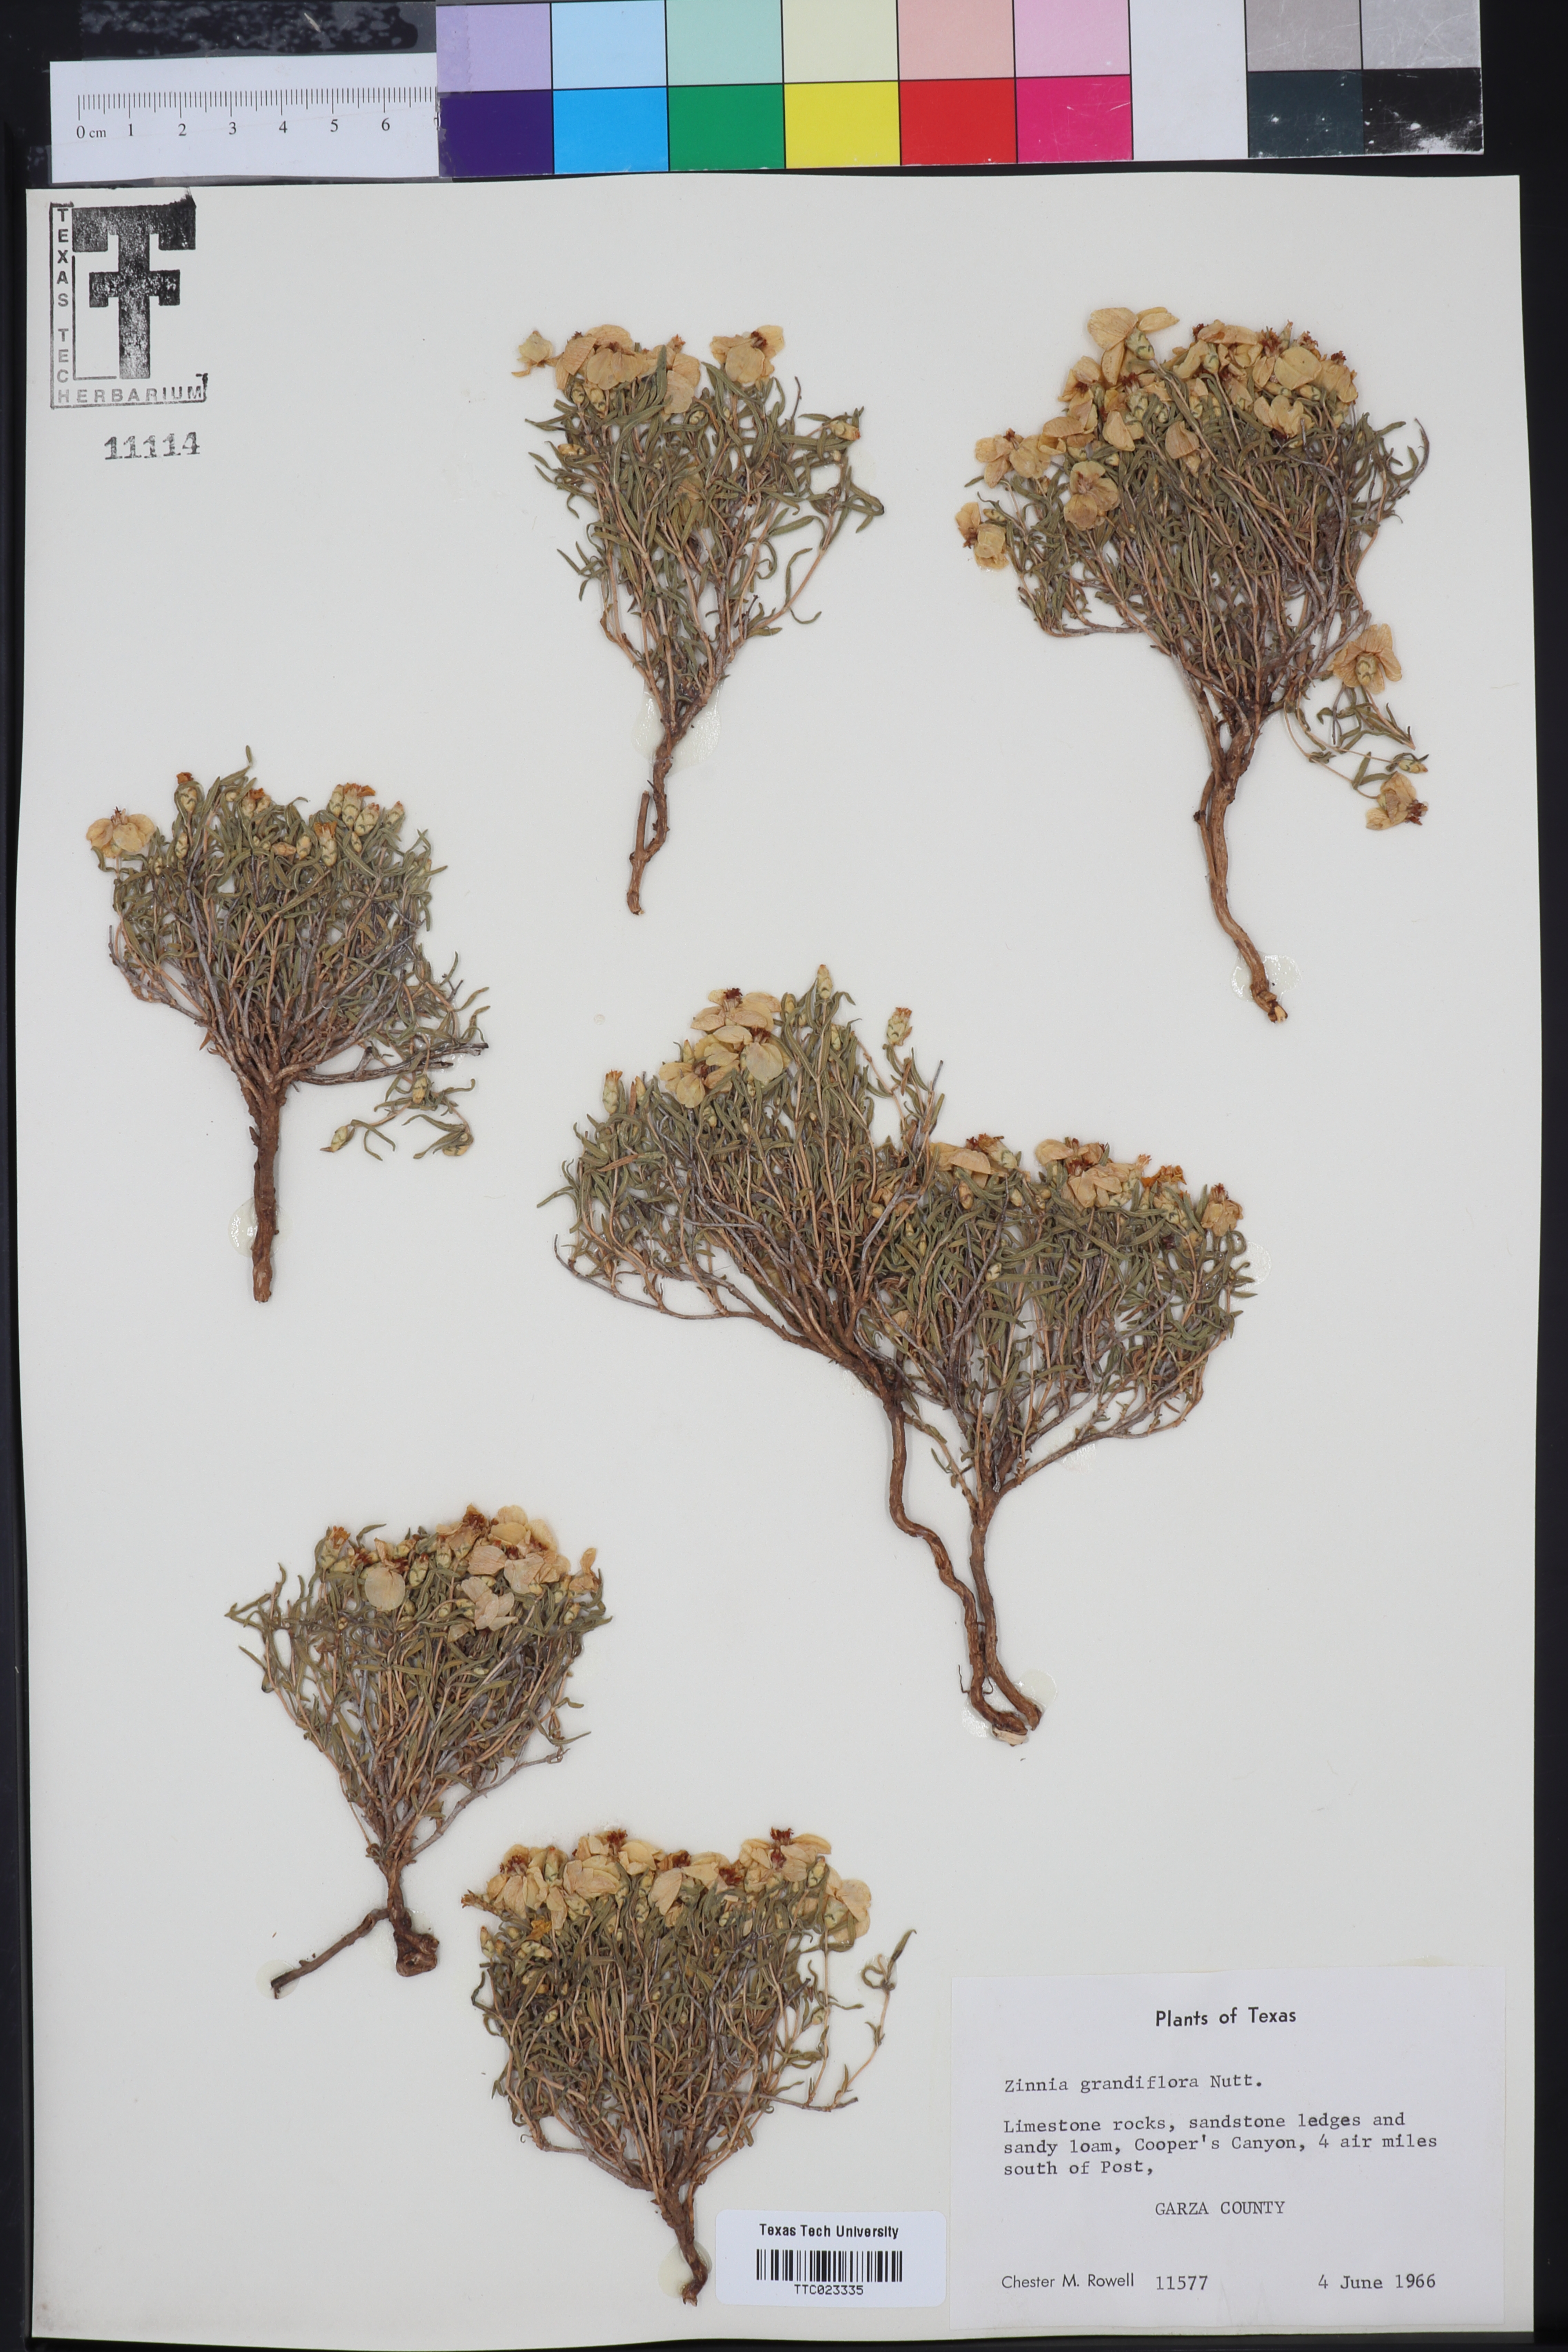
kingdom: Plantae
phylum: Tracheophyta
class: Magnoliopsida
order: Asterales
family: Asteraceae
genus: Zinnia
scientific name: Zinnia grandiflora
